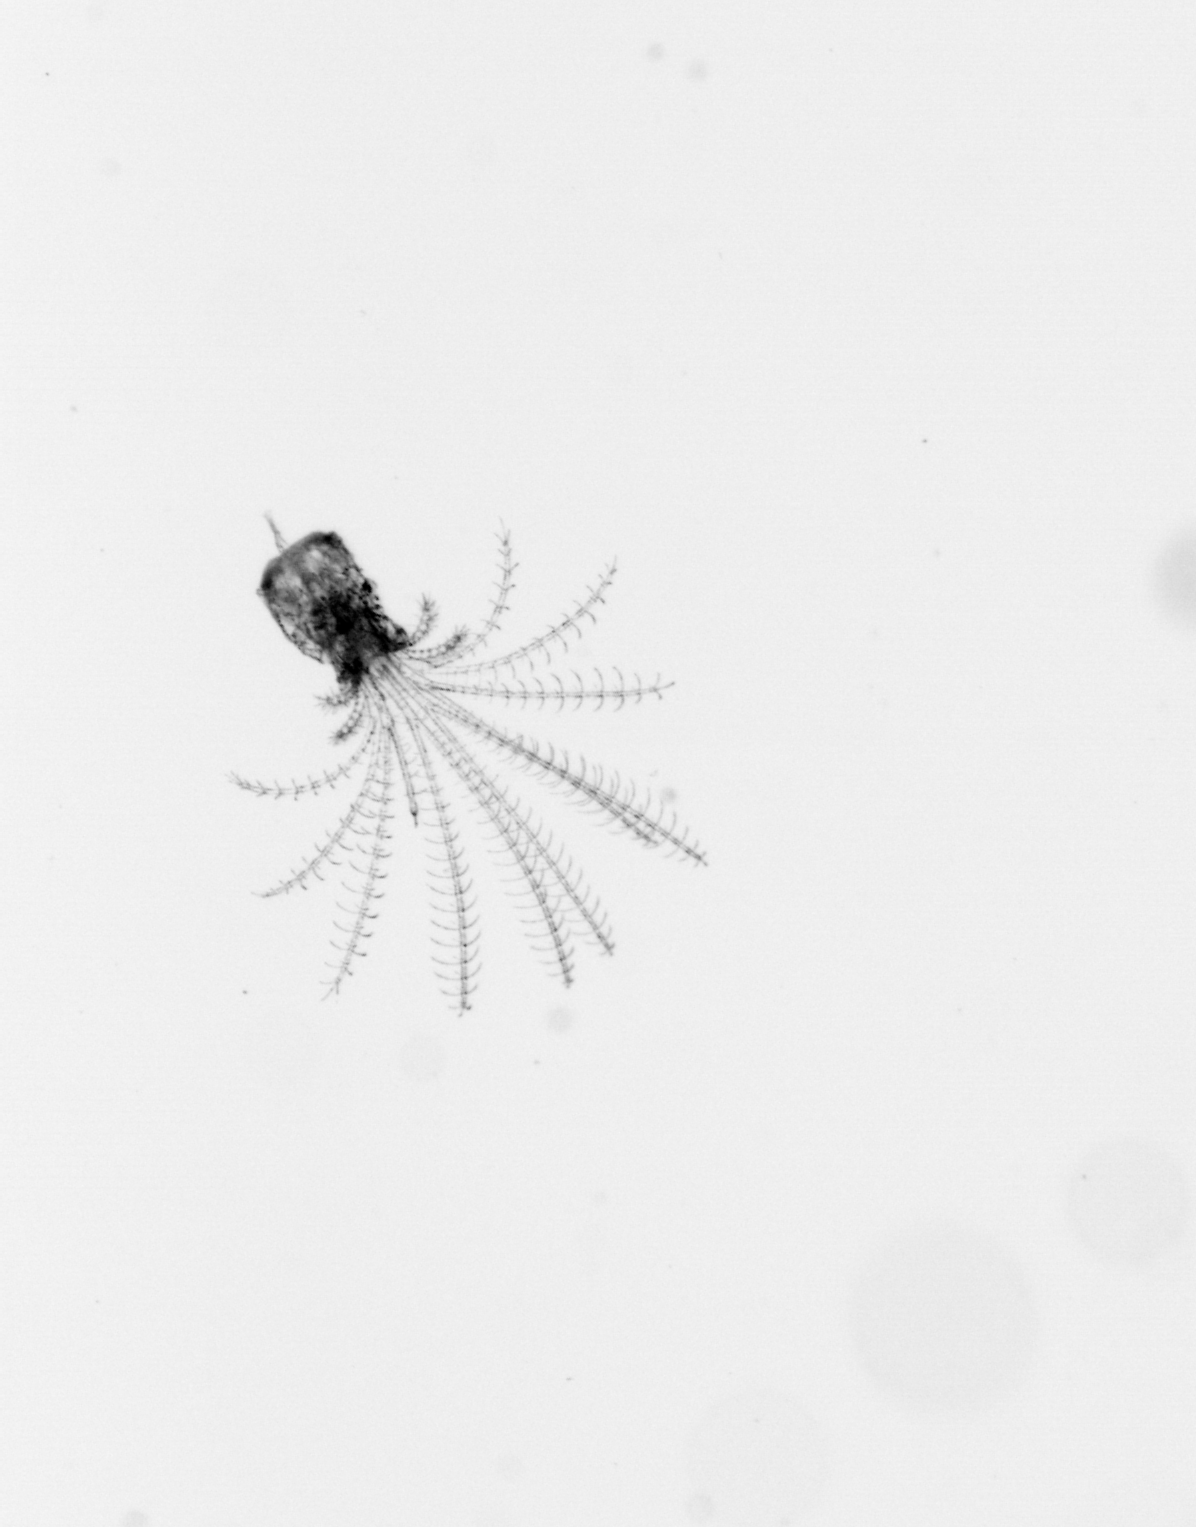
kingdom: Animalia
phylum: Arthropoda
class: Maxillopoda
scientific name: Maxillopoda
